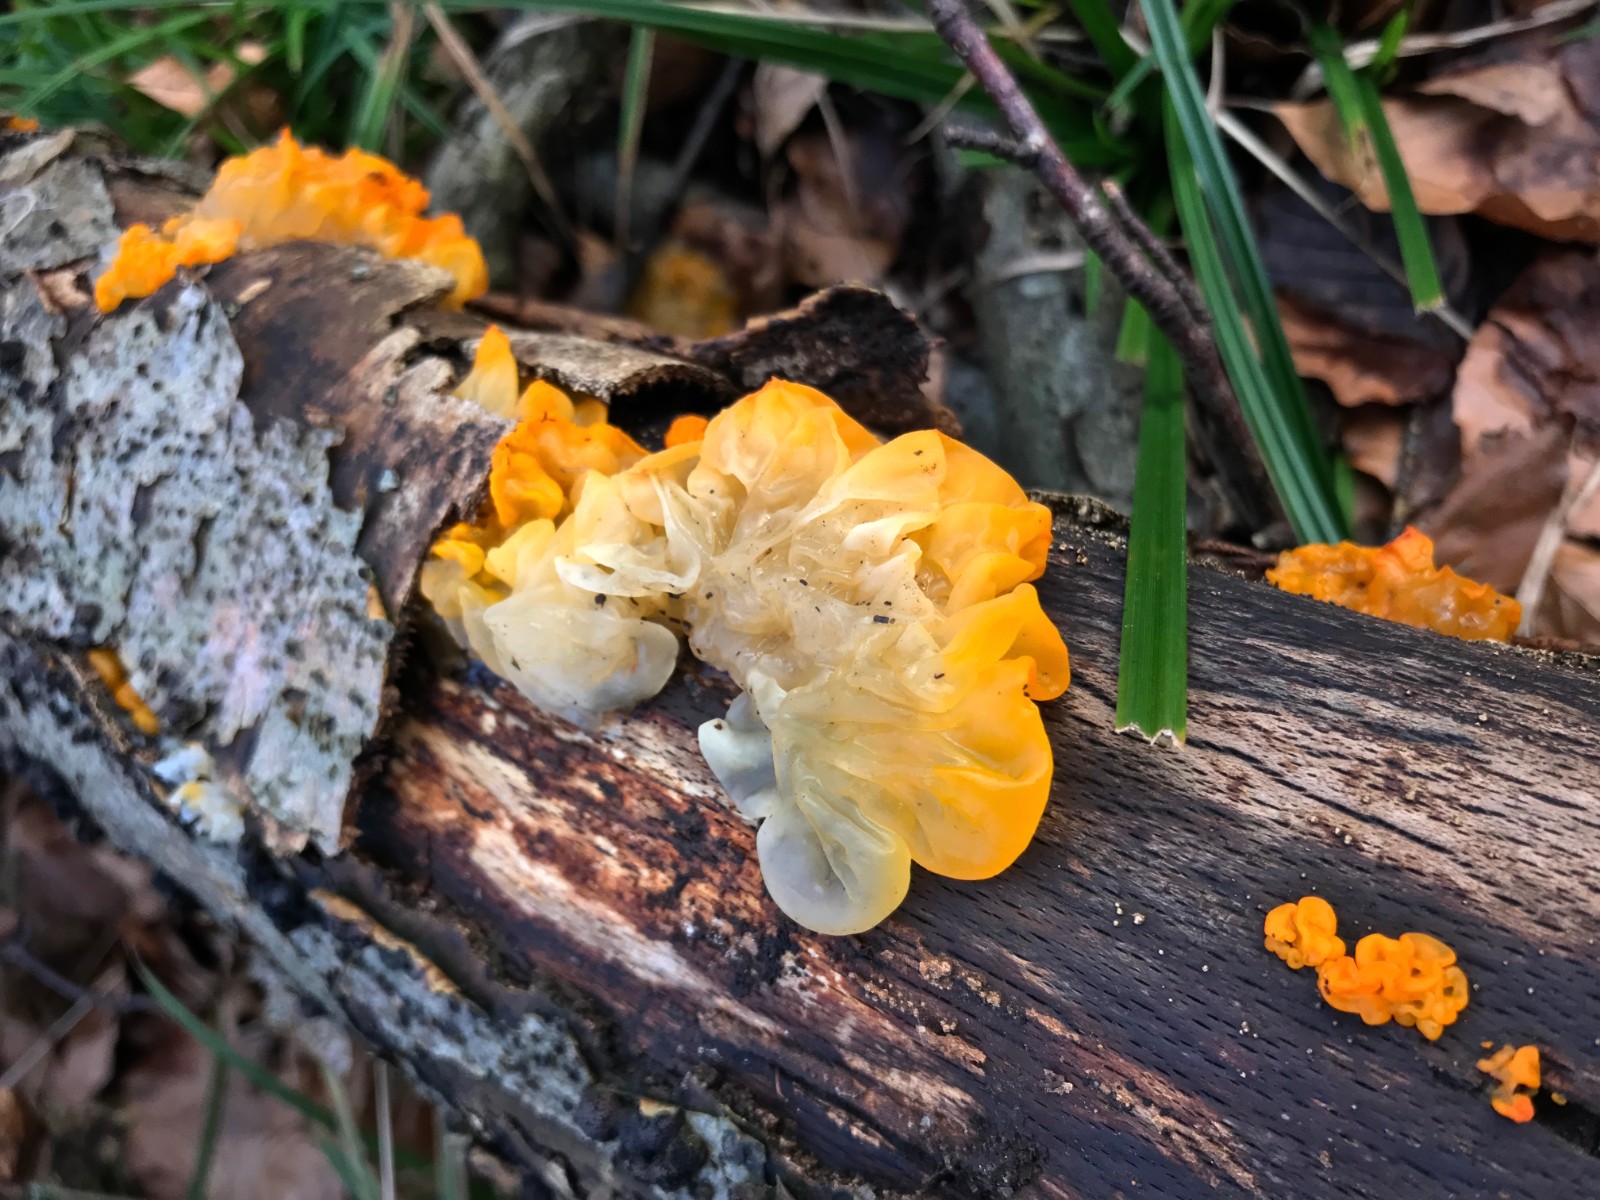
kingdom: Fungi
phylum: Basidiomycota
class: Tremellomycetes
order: Tremellales
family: Tremellaceae
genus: Tremella
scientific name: Tremella mesenterica
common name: gul bævresvamp
